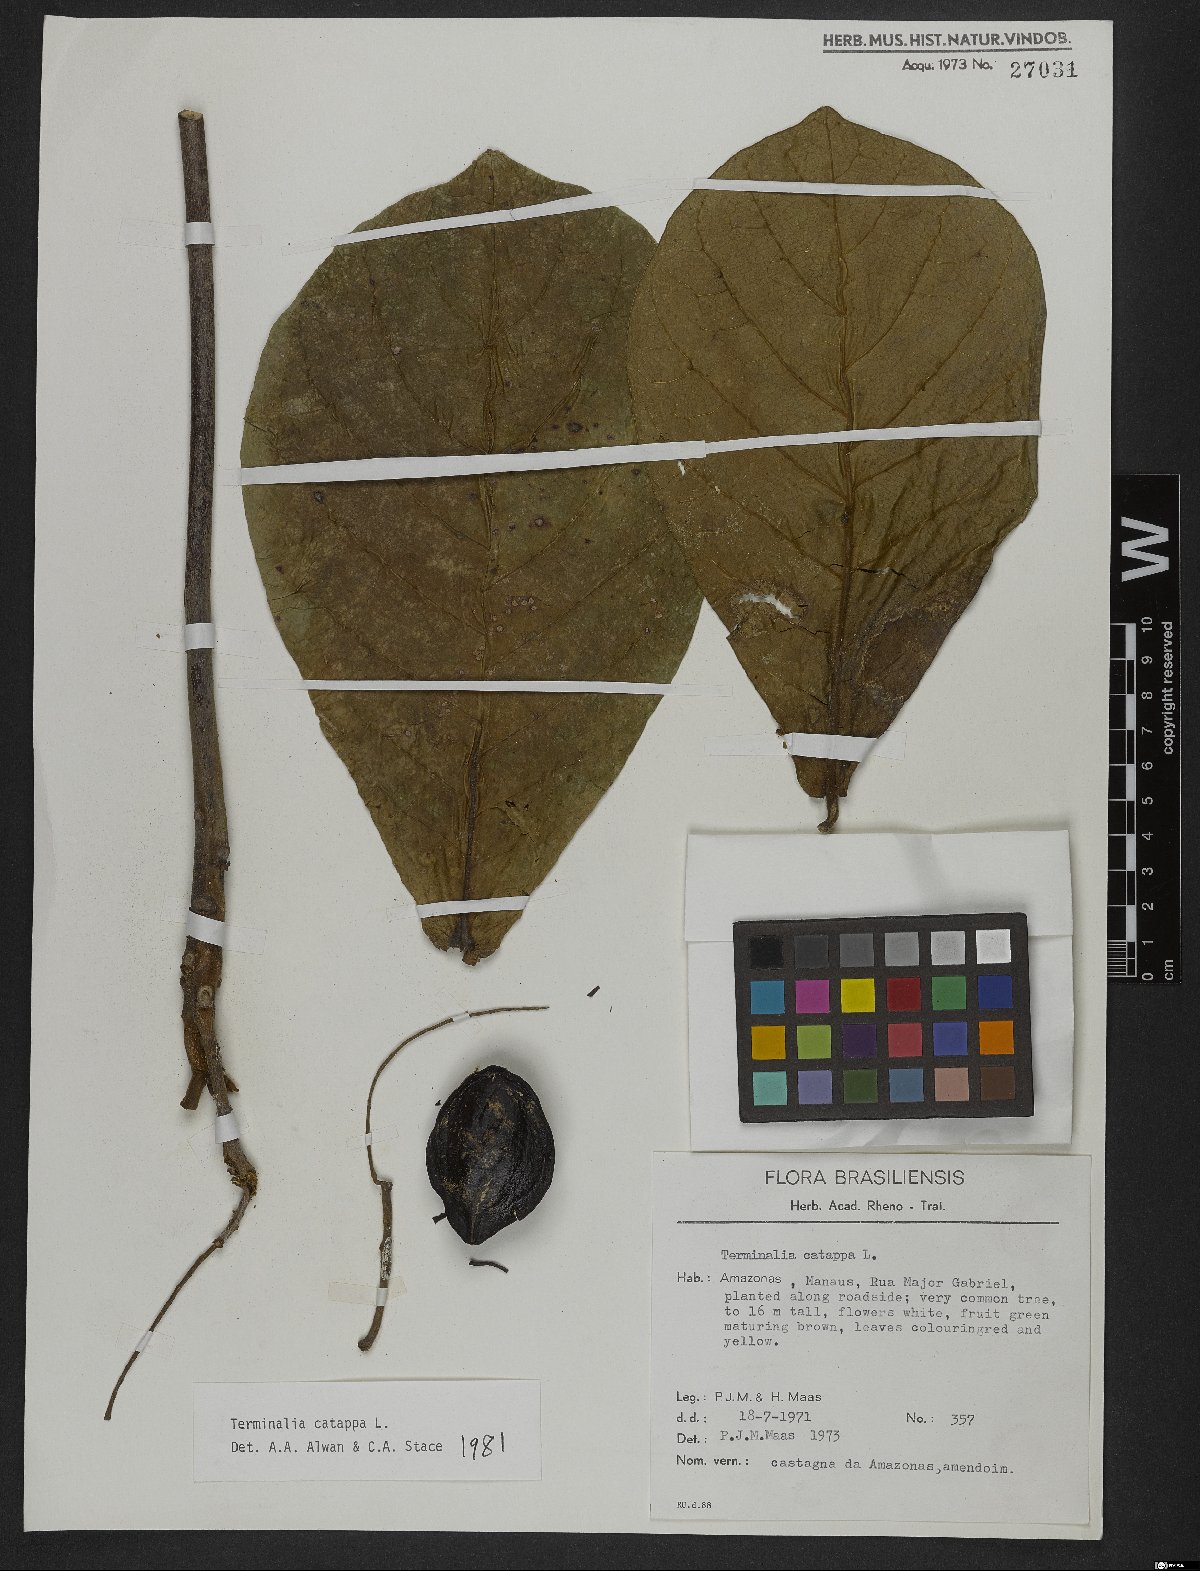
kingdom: Plantae
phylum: Tracheophyta
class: Magnoliopsida
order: Myrtales
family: Combretaceae
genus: Terminalia
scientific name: Terminalia catappa
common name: Tropical almond
